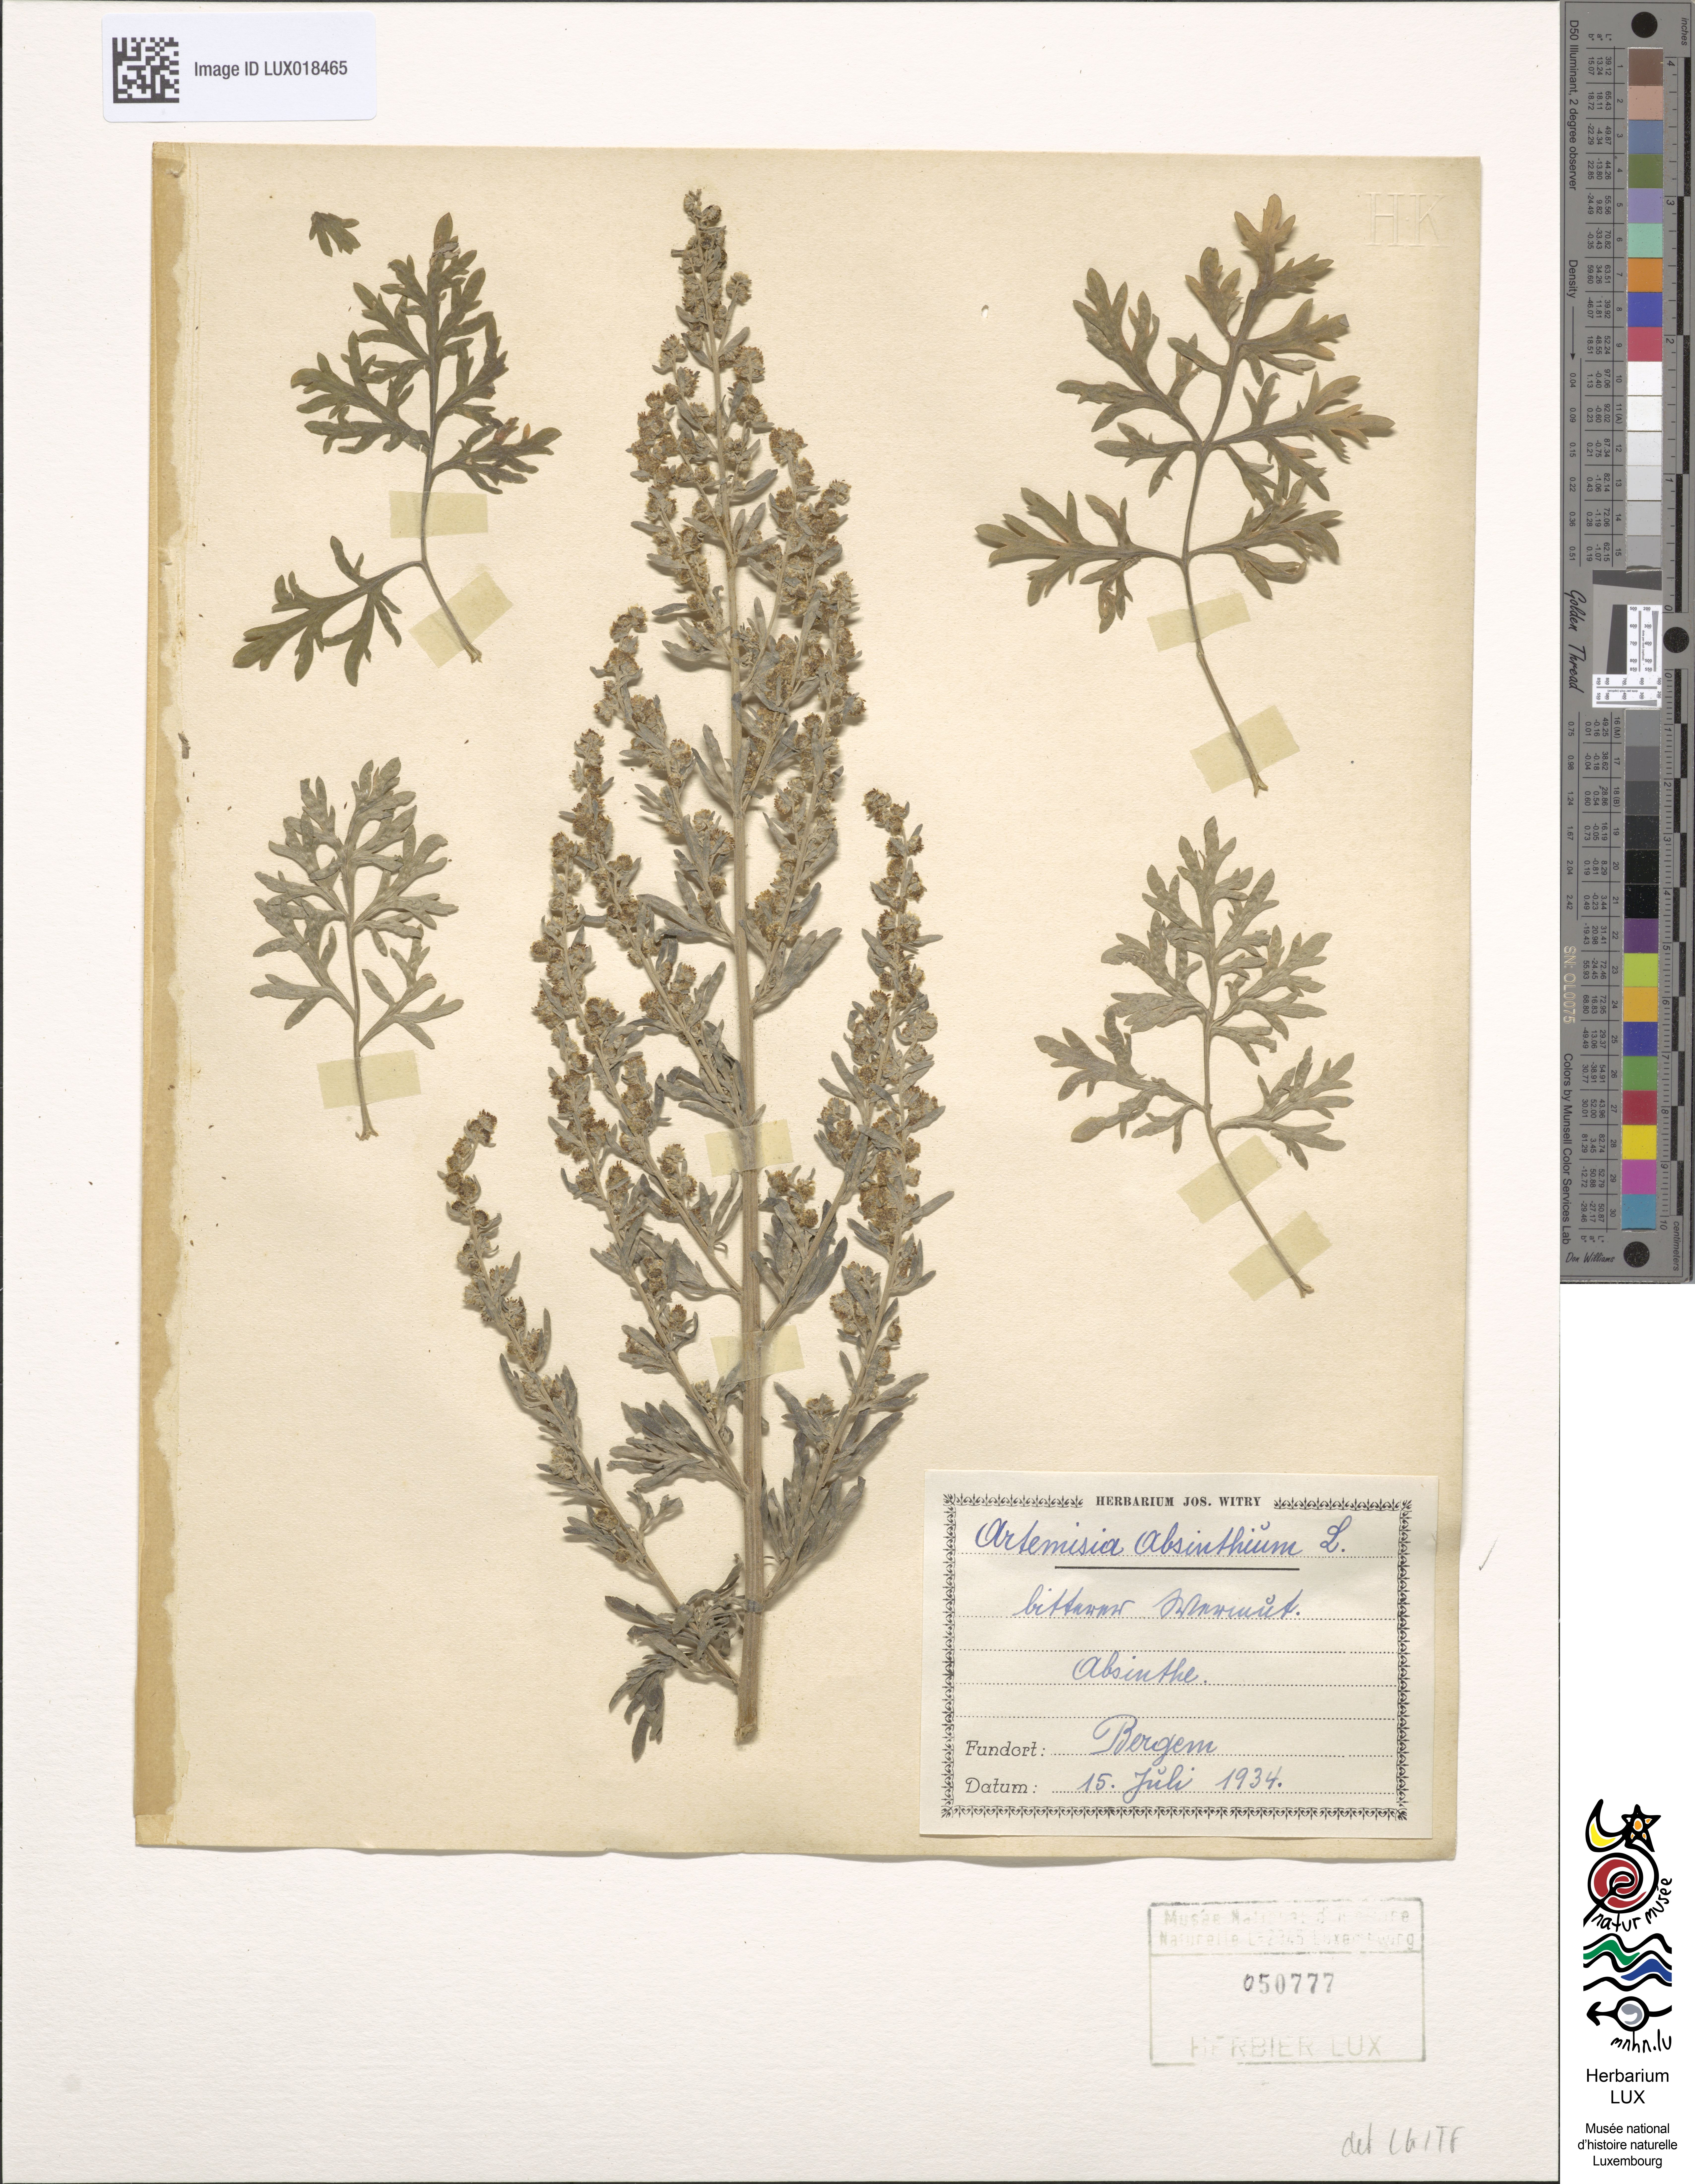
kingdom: Plantae
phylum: Tracheophyta
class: Magnoliopsida
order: Asterales
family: Asteraceae
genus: Artemisia
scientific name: Artemisia absinthium
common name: Wormwood
